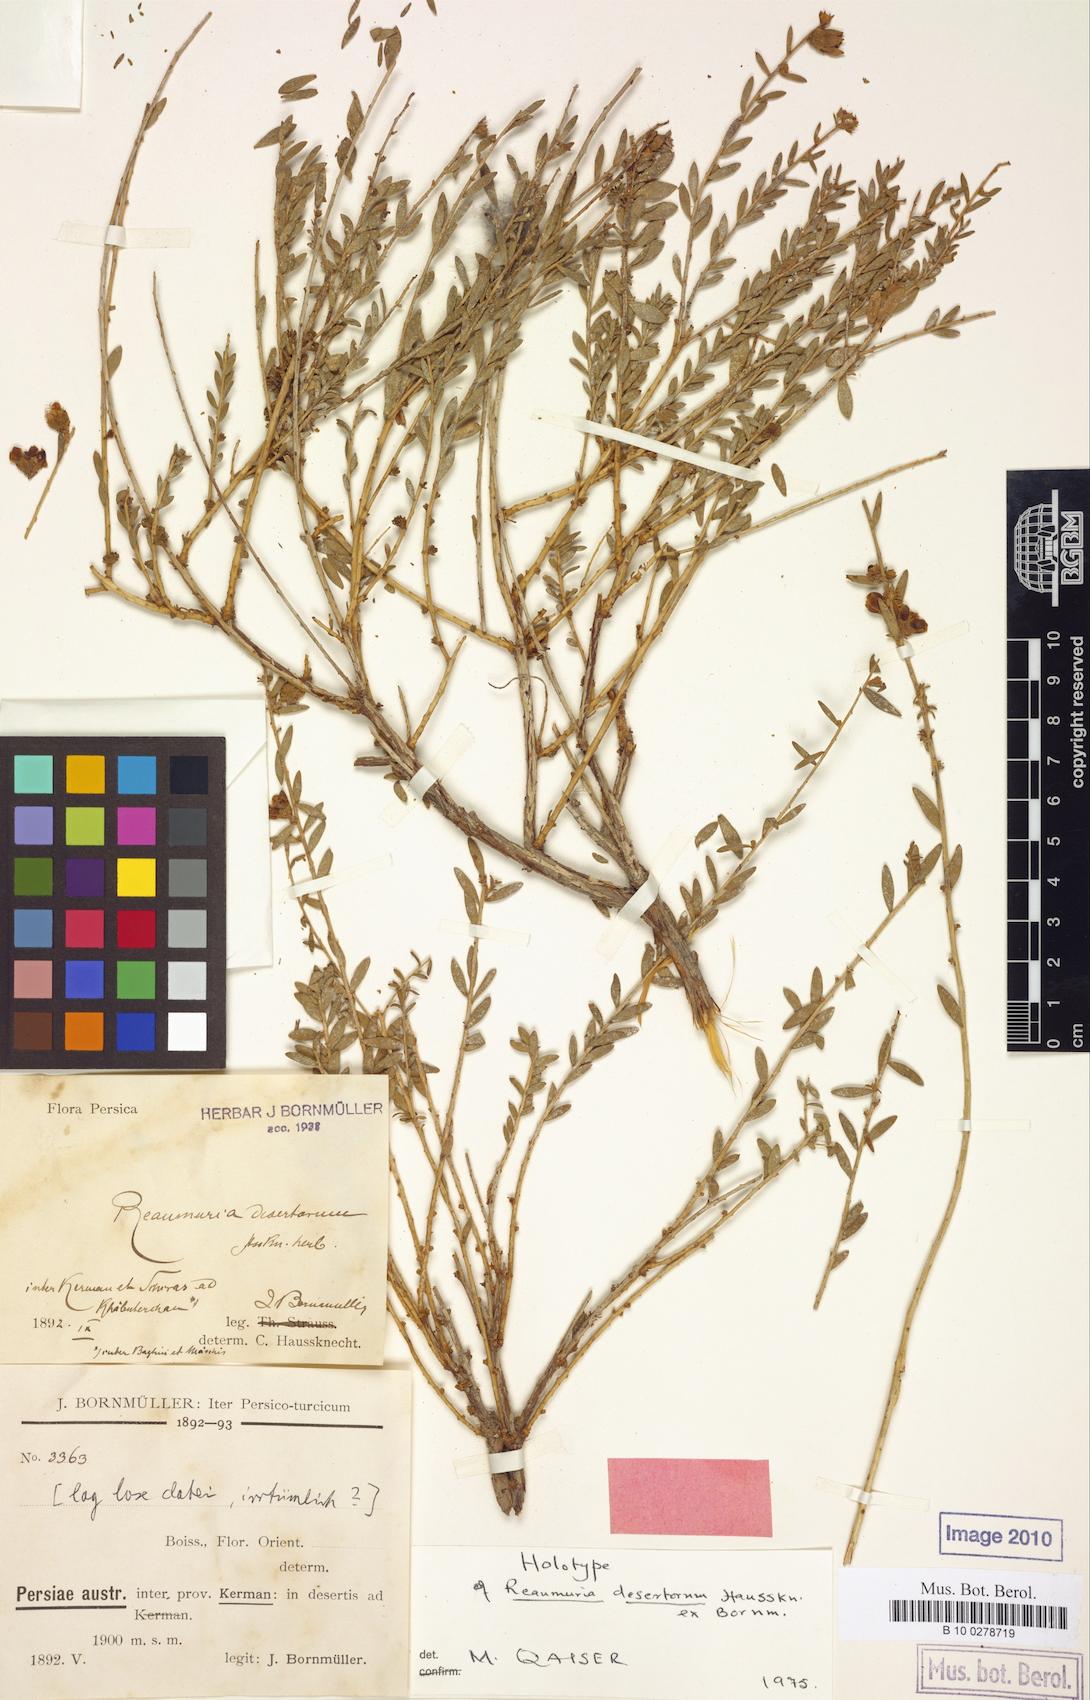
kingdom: Plantae
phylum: Tracheophyta
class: Magnoliopsida
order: Caryophyllales
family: Tamaricaceae
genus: Reaumuria
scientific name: Reaumuria alternifolia
